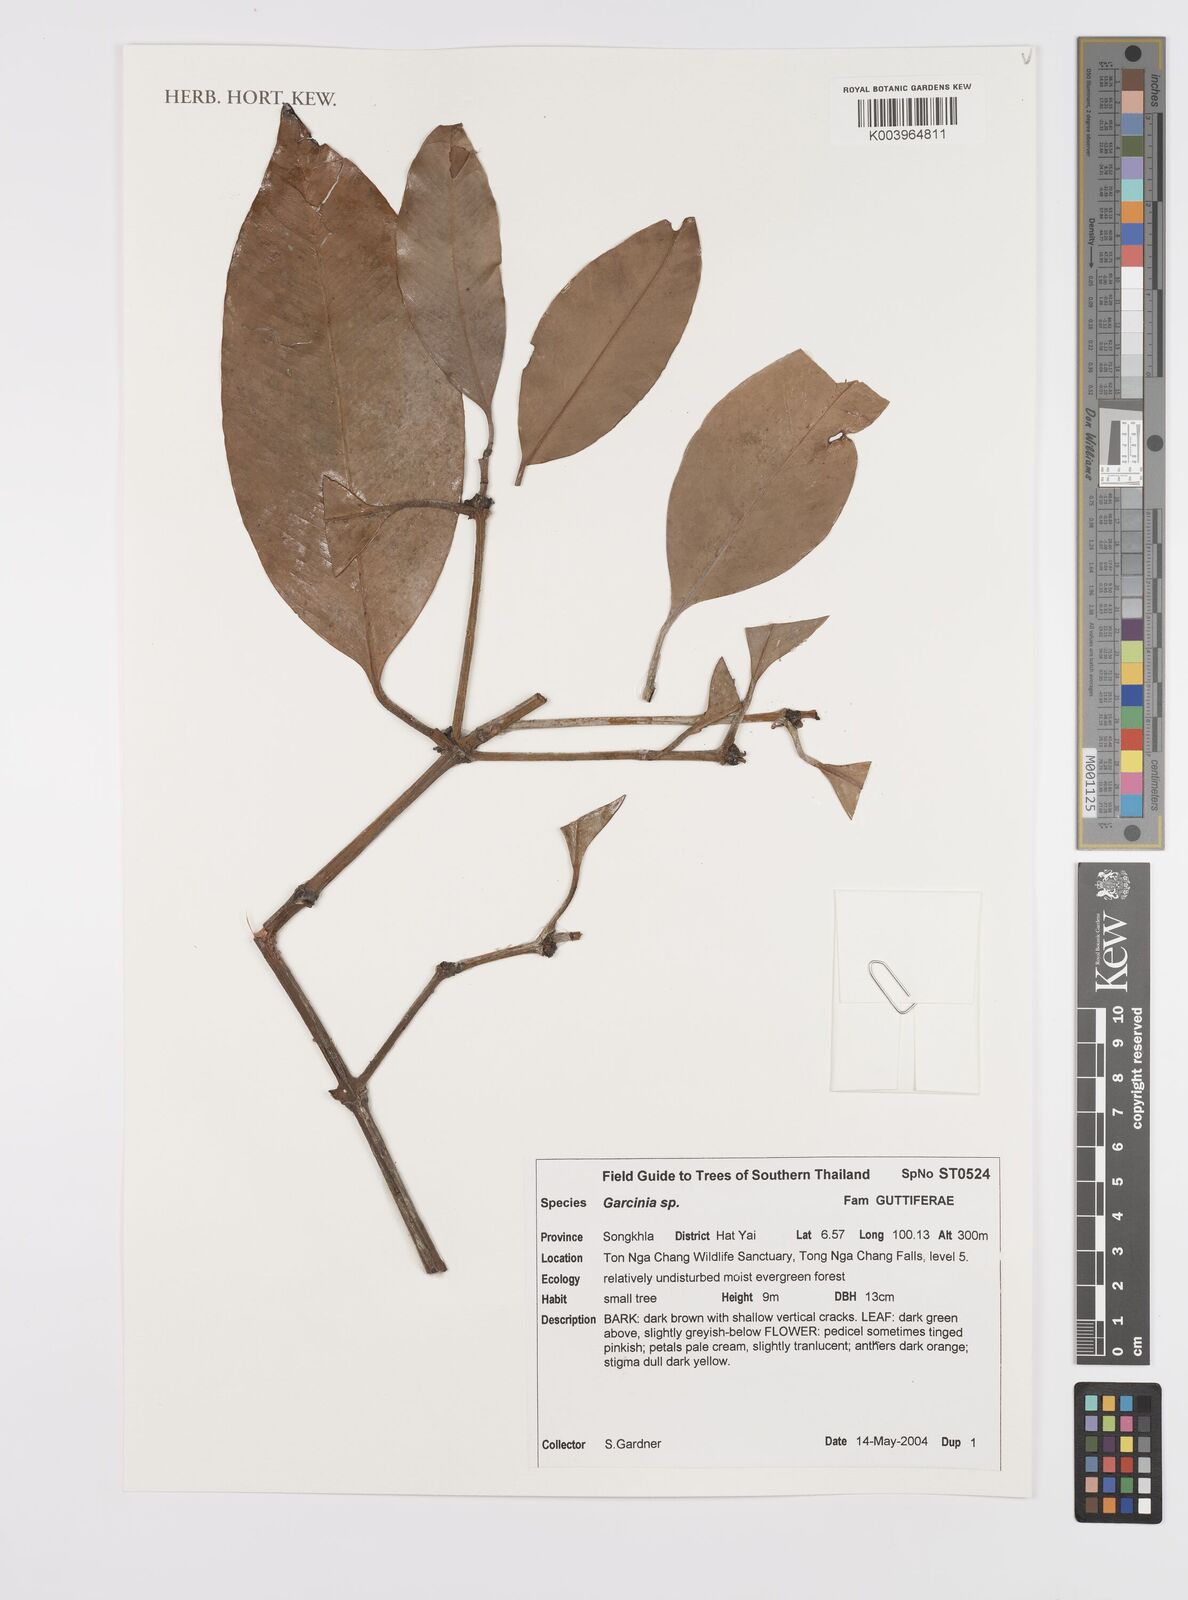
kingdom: Plantae
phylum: Tracheophyta
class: Magnoliopsida
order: Malpighiales
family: Clusiaceae
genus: Garcinia
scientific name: Garcinia
